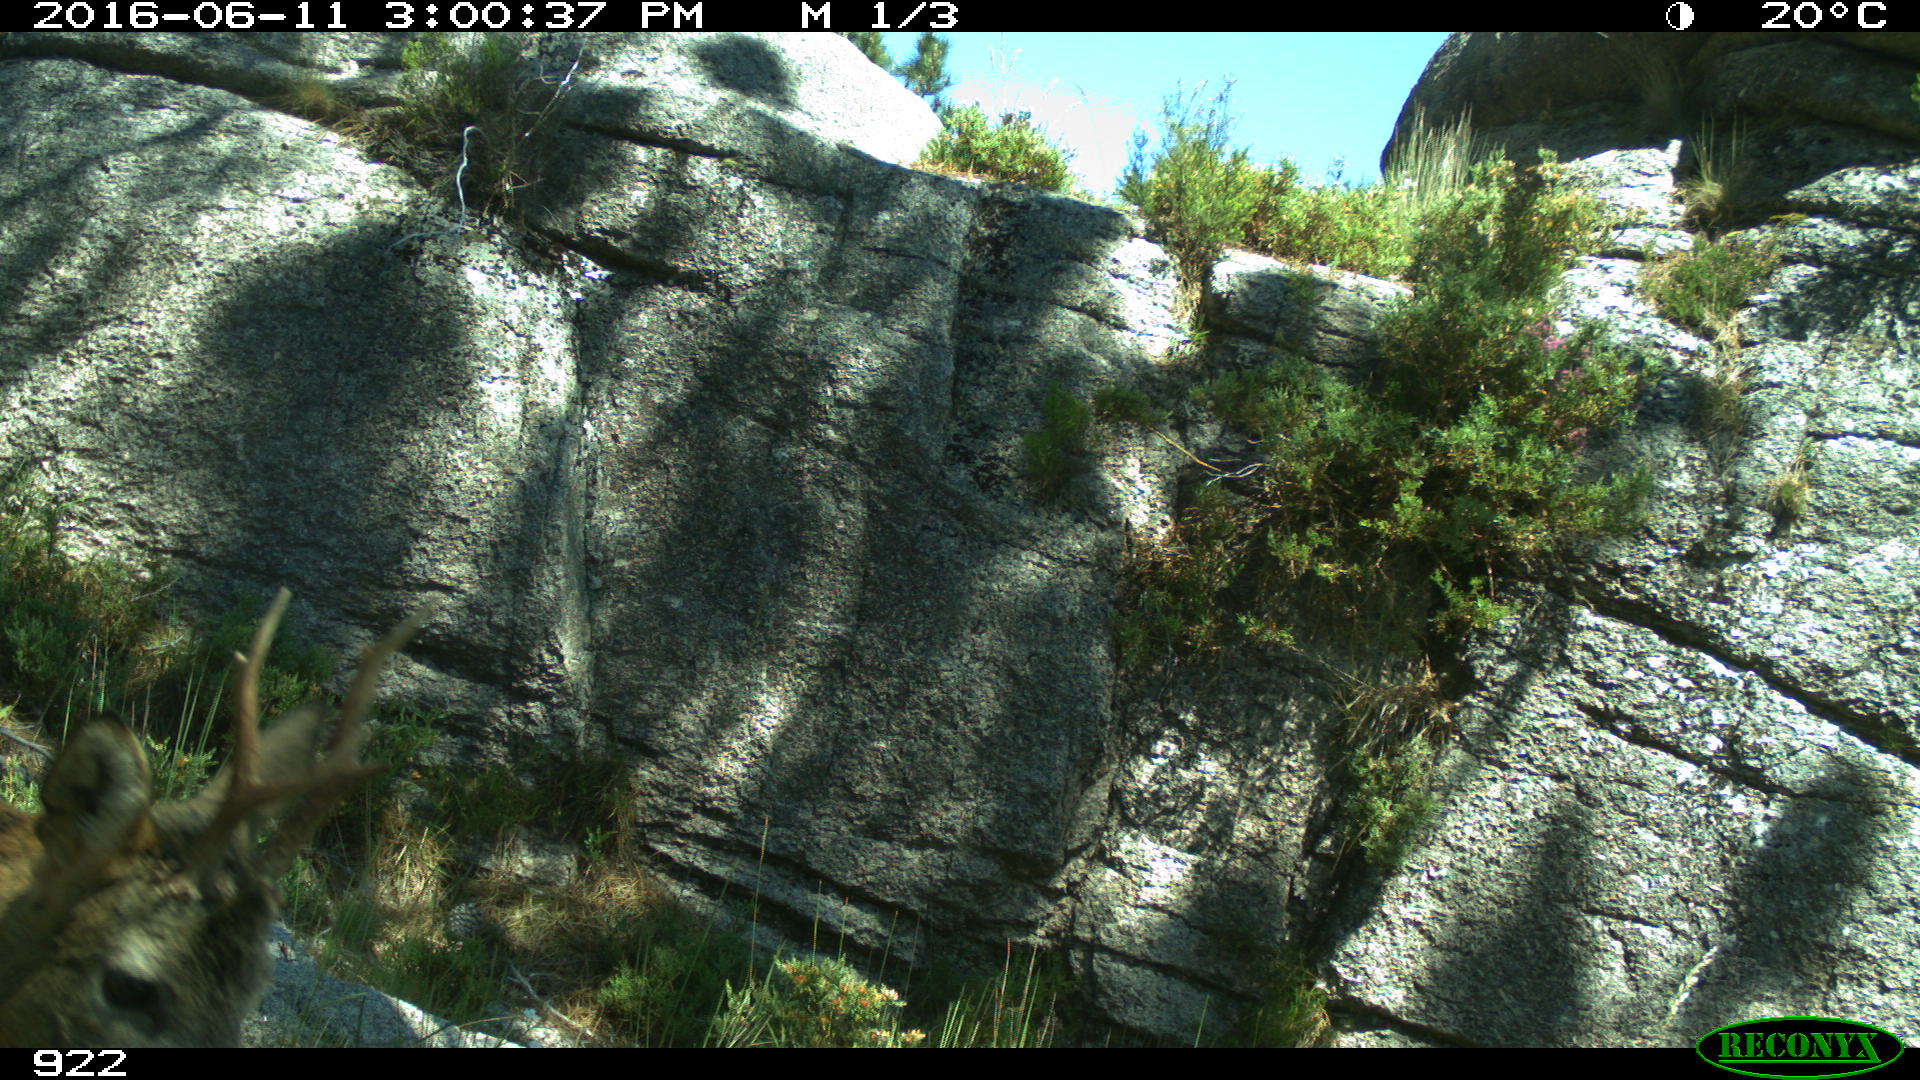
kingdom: Animalia
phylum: Chordata
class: Mammalia
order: Artiodactyla
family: Cervidae
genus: Capreolus
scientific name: Capreolus capreolus
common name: Western roe deer
